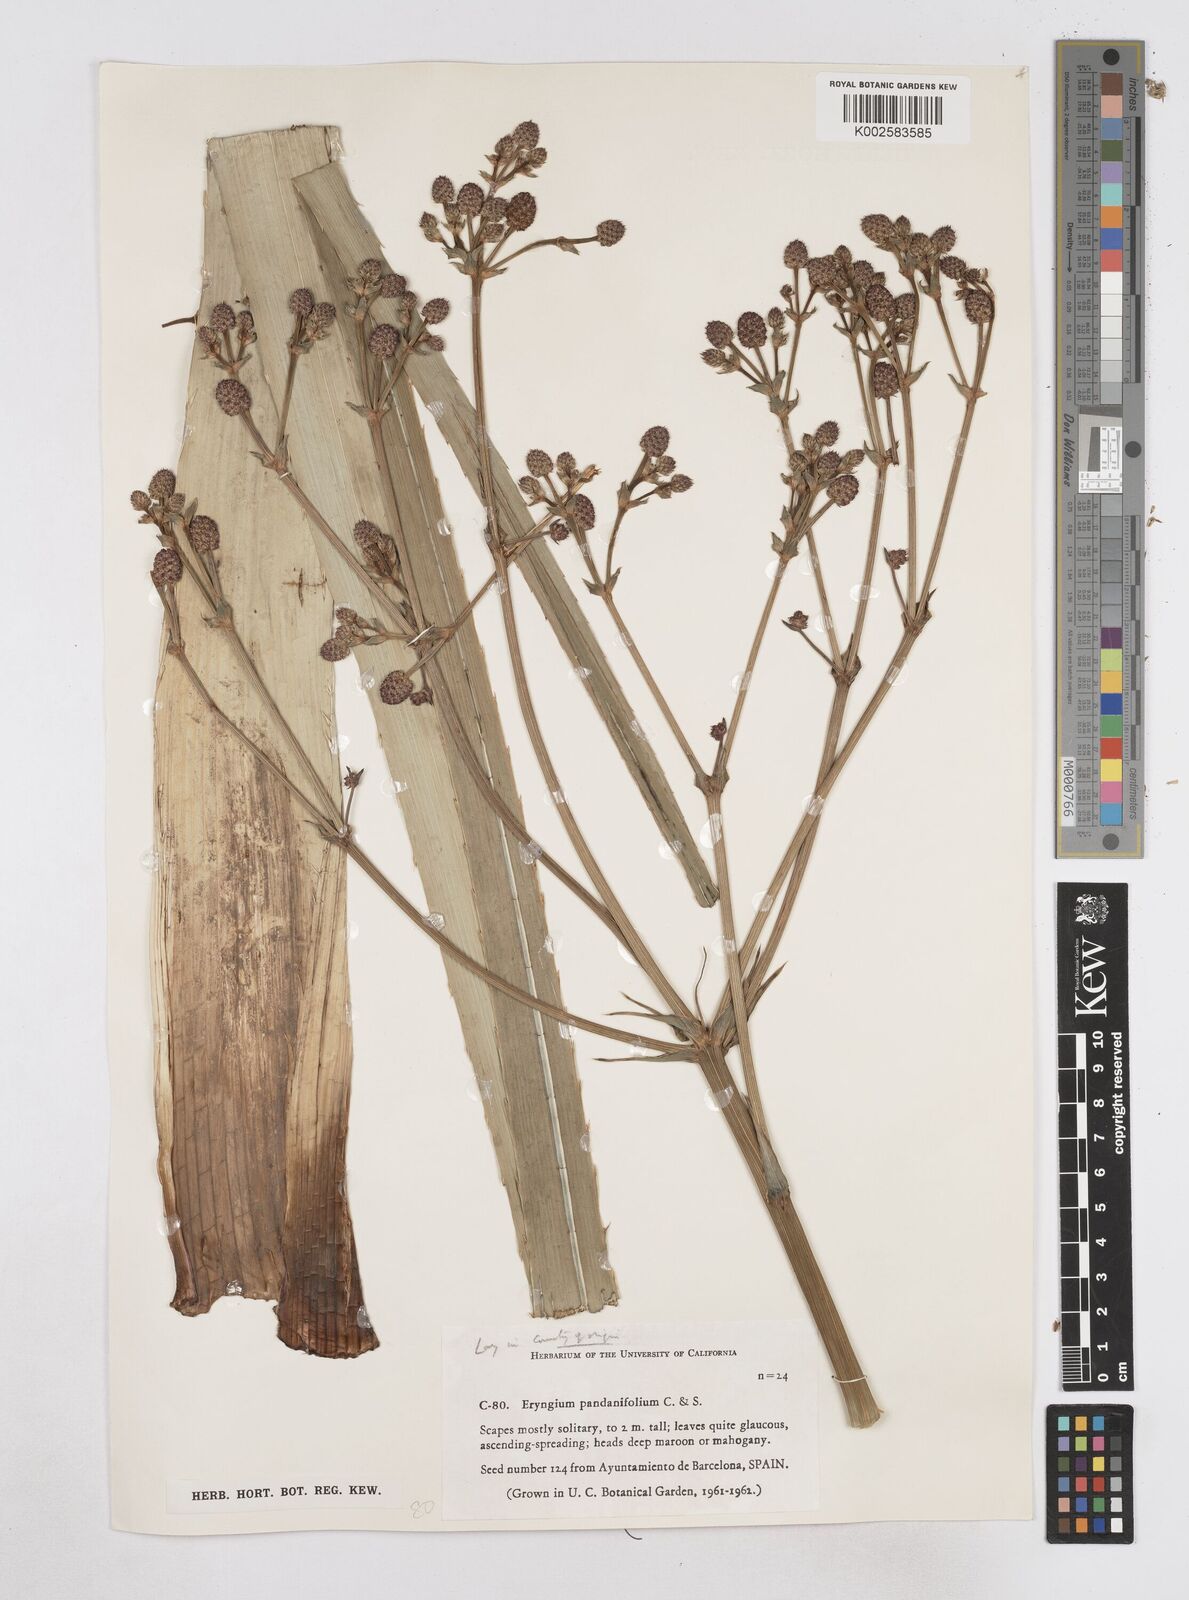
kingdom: Plantae
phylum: Tracheophyta
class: Magnoliopsida
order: Apiales
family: Apiaceae
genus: Eryngium
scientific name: Eryngium pandanifolium
